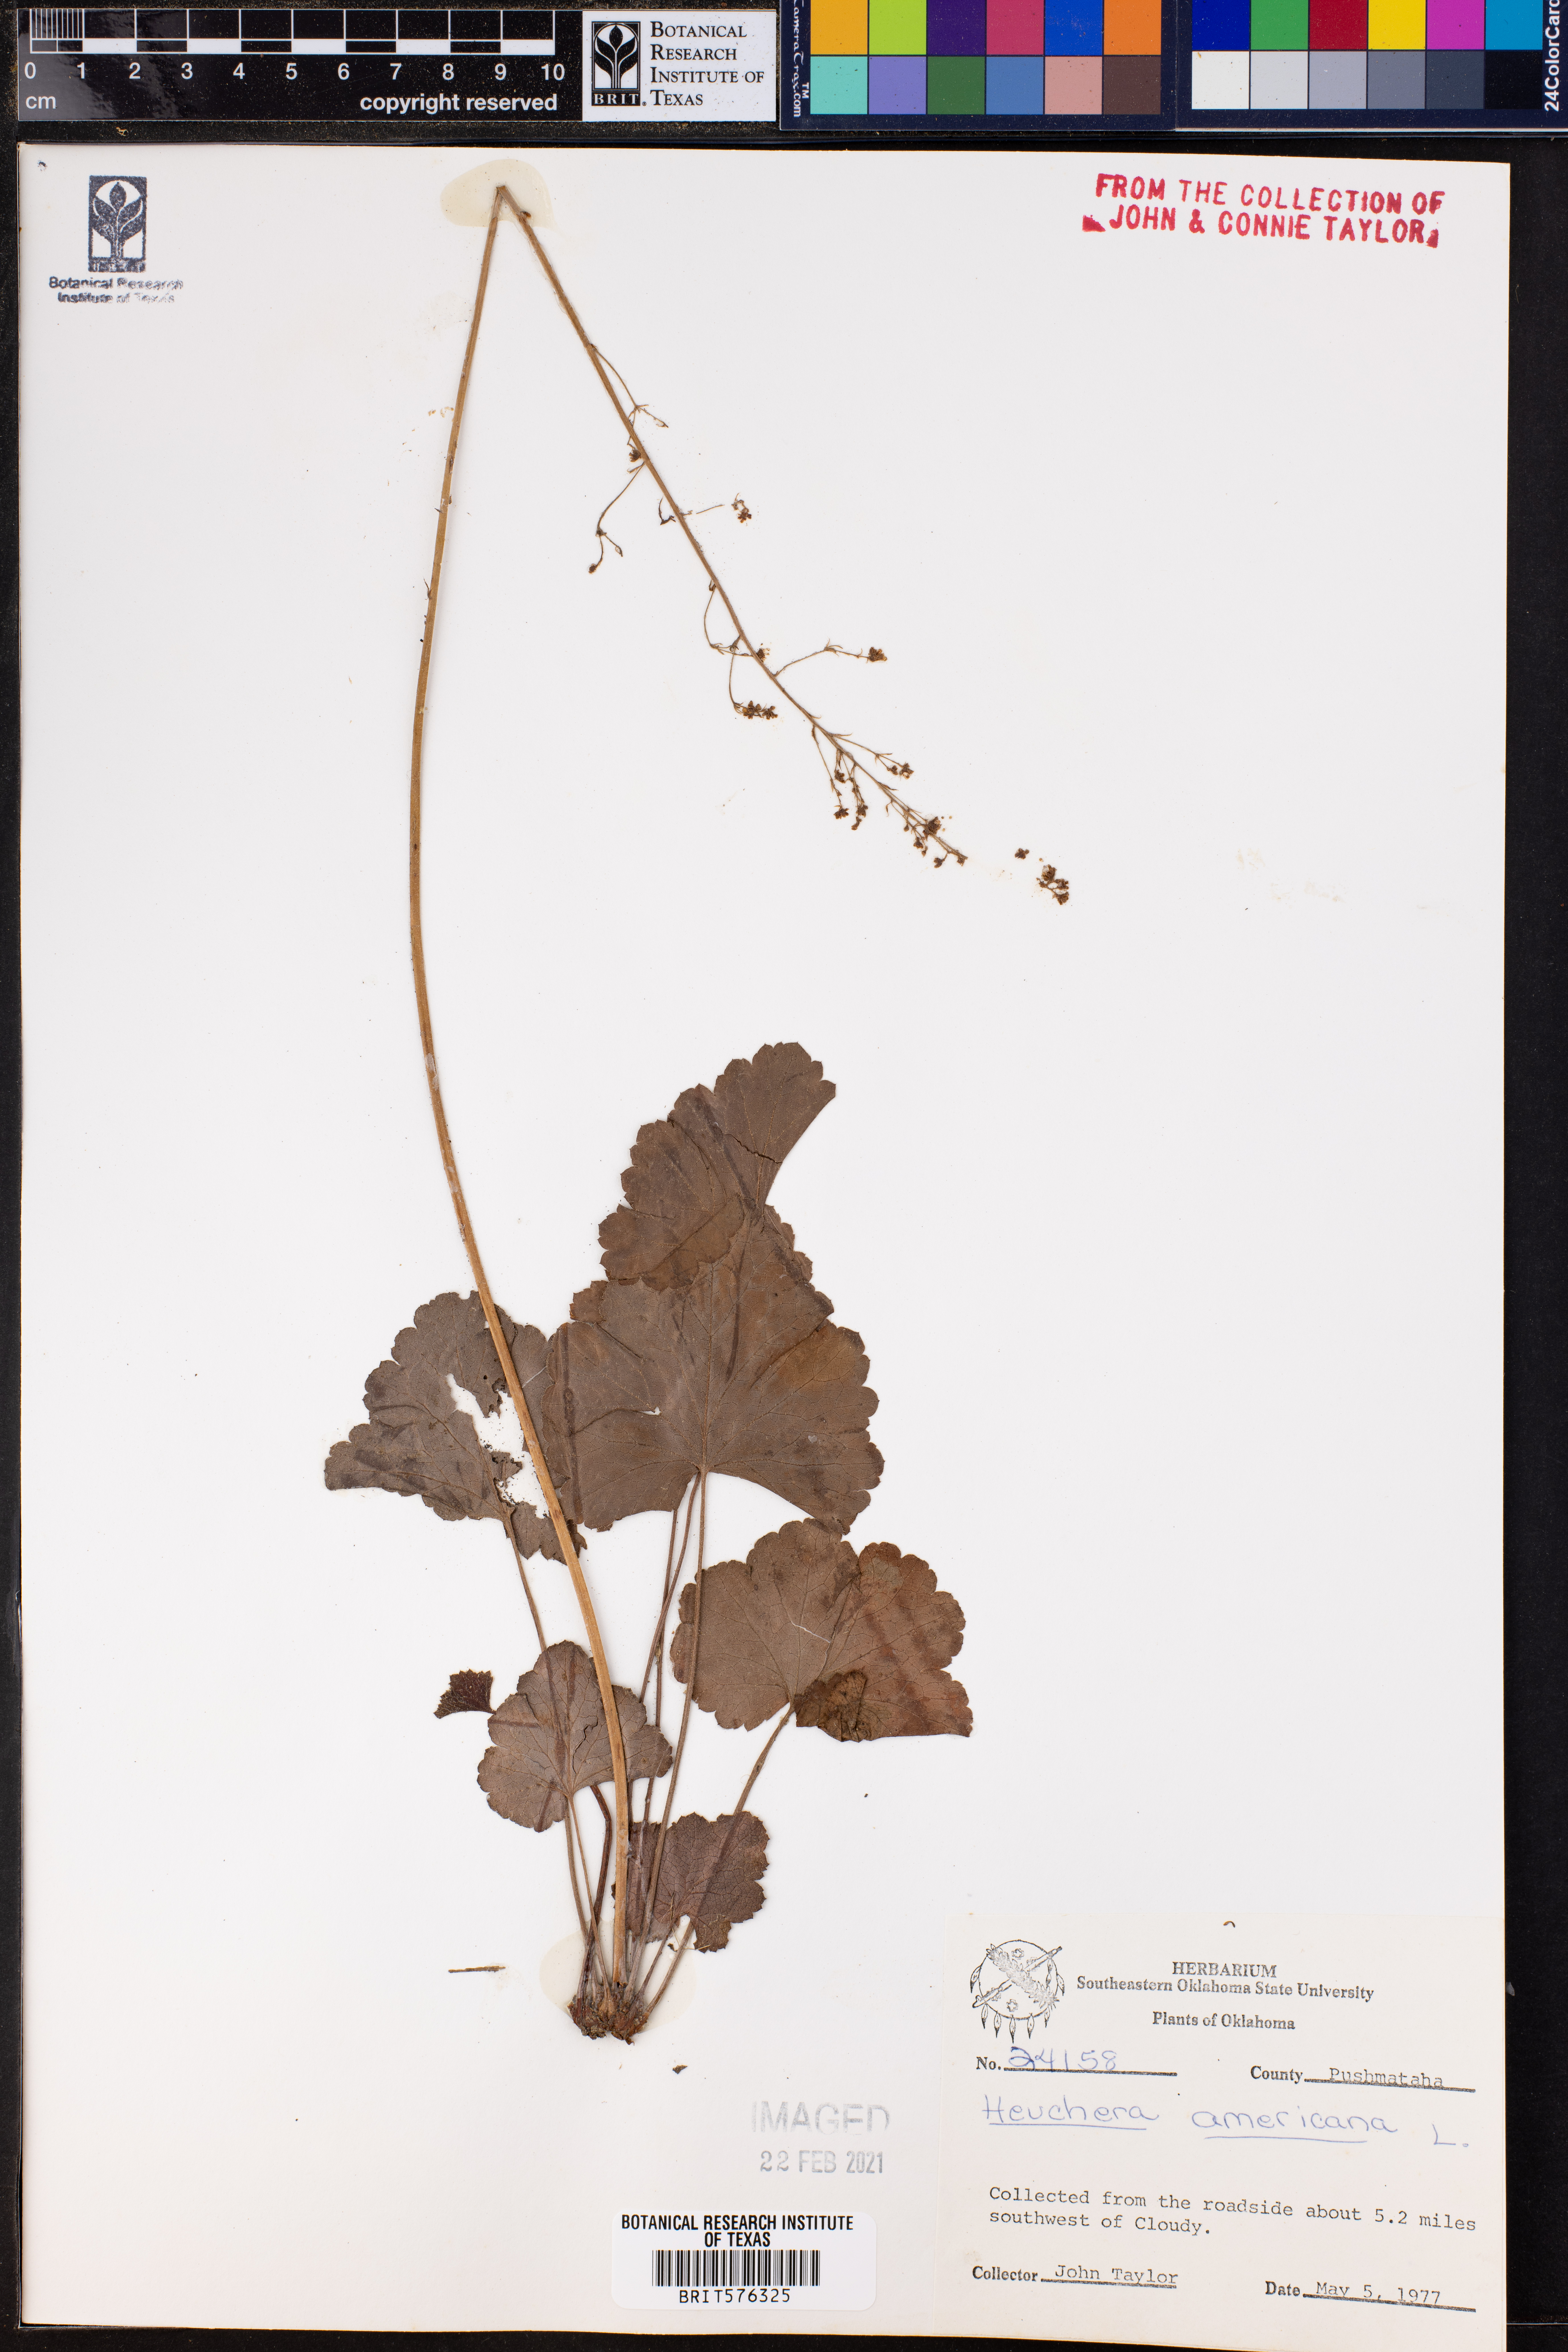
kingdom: Plantae
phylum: Tracheophyta
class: Magnoliopsida
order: Saxifragales
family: Saxifragaceae
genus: Heuchera
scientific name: Heuchera americana
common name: Alumroot
